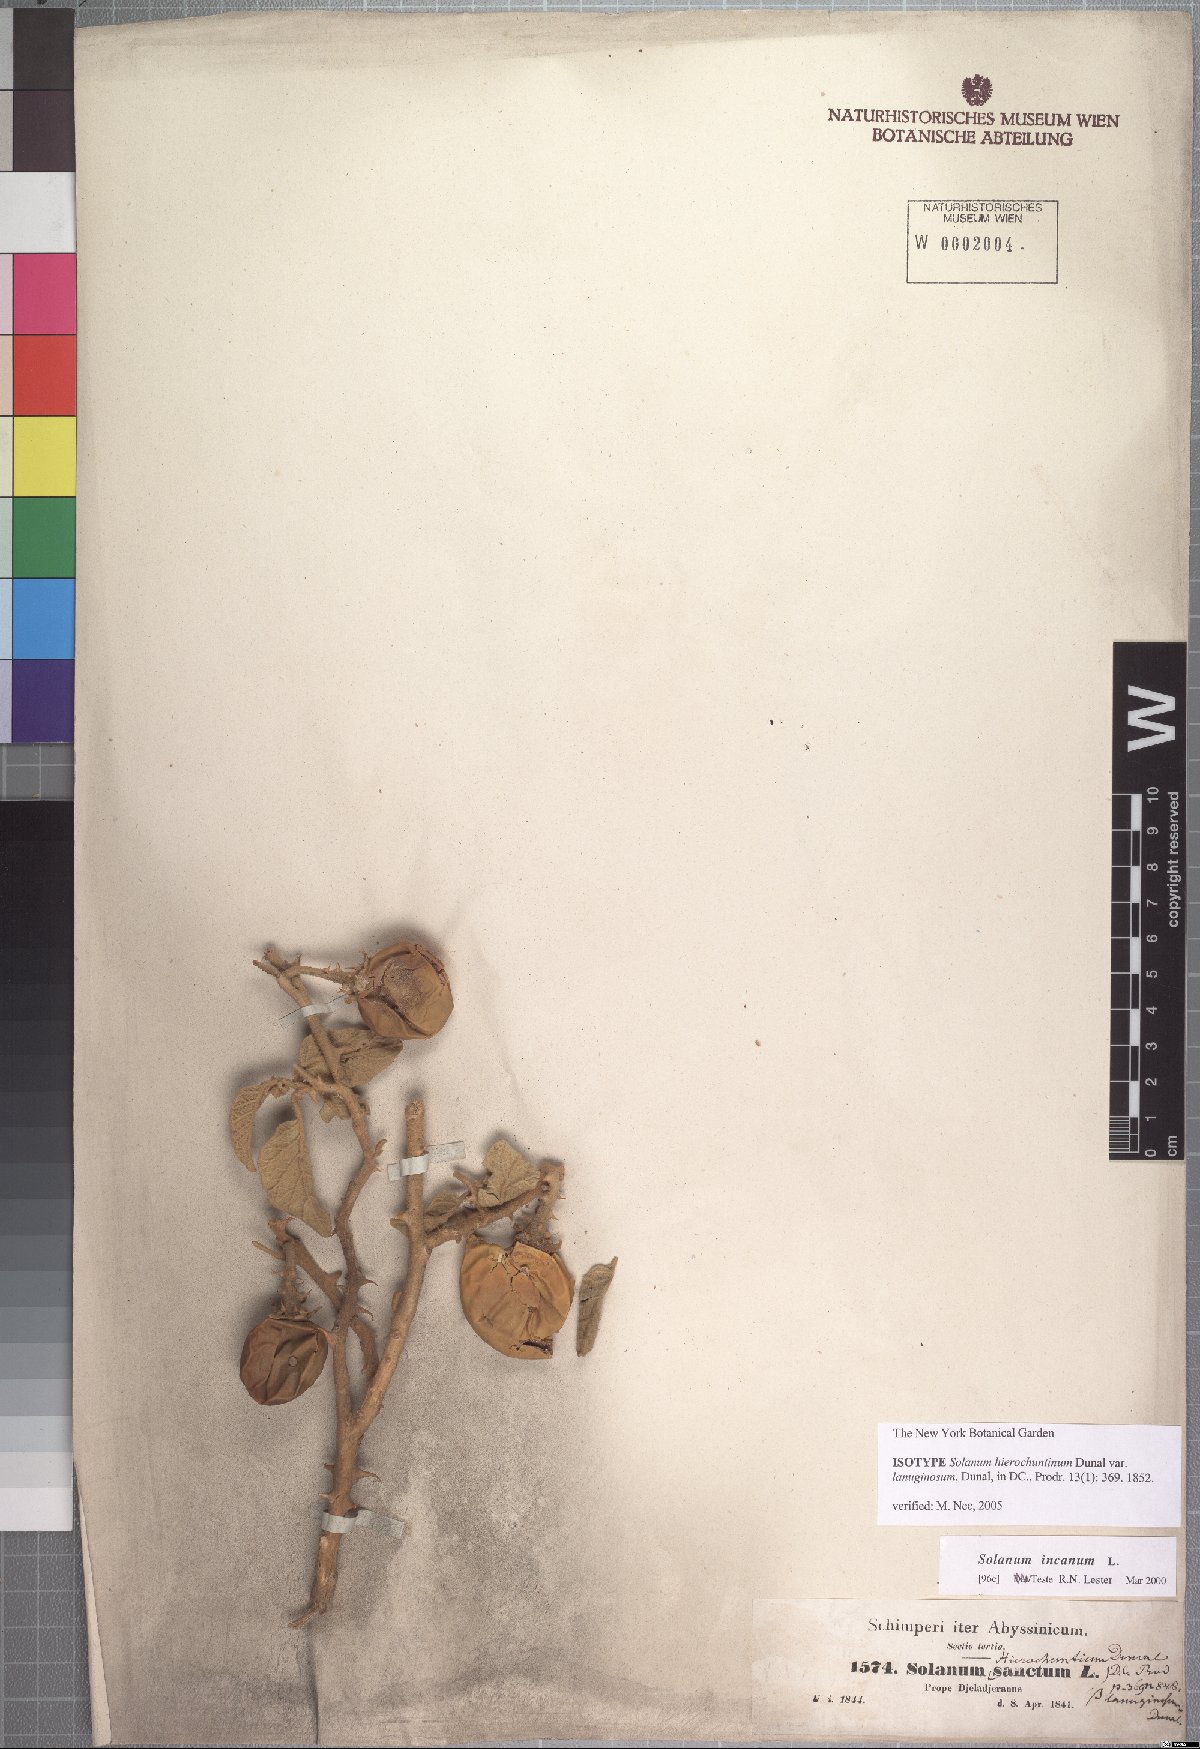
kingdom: Plantae
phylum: Tracheophyta
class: Magnoliopsida
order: Solanales
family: Solanaceae
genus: Solanum
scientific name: Solanum incanum
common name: Bitter apple
